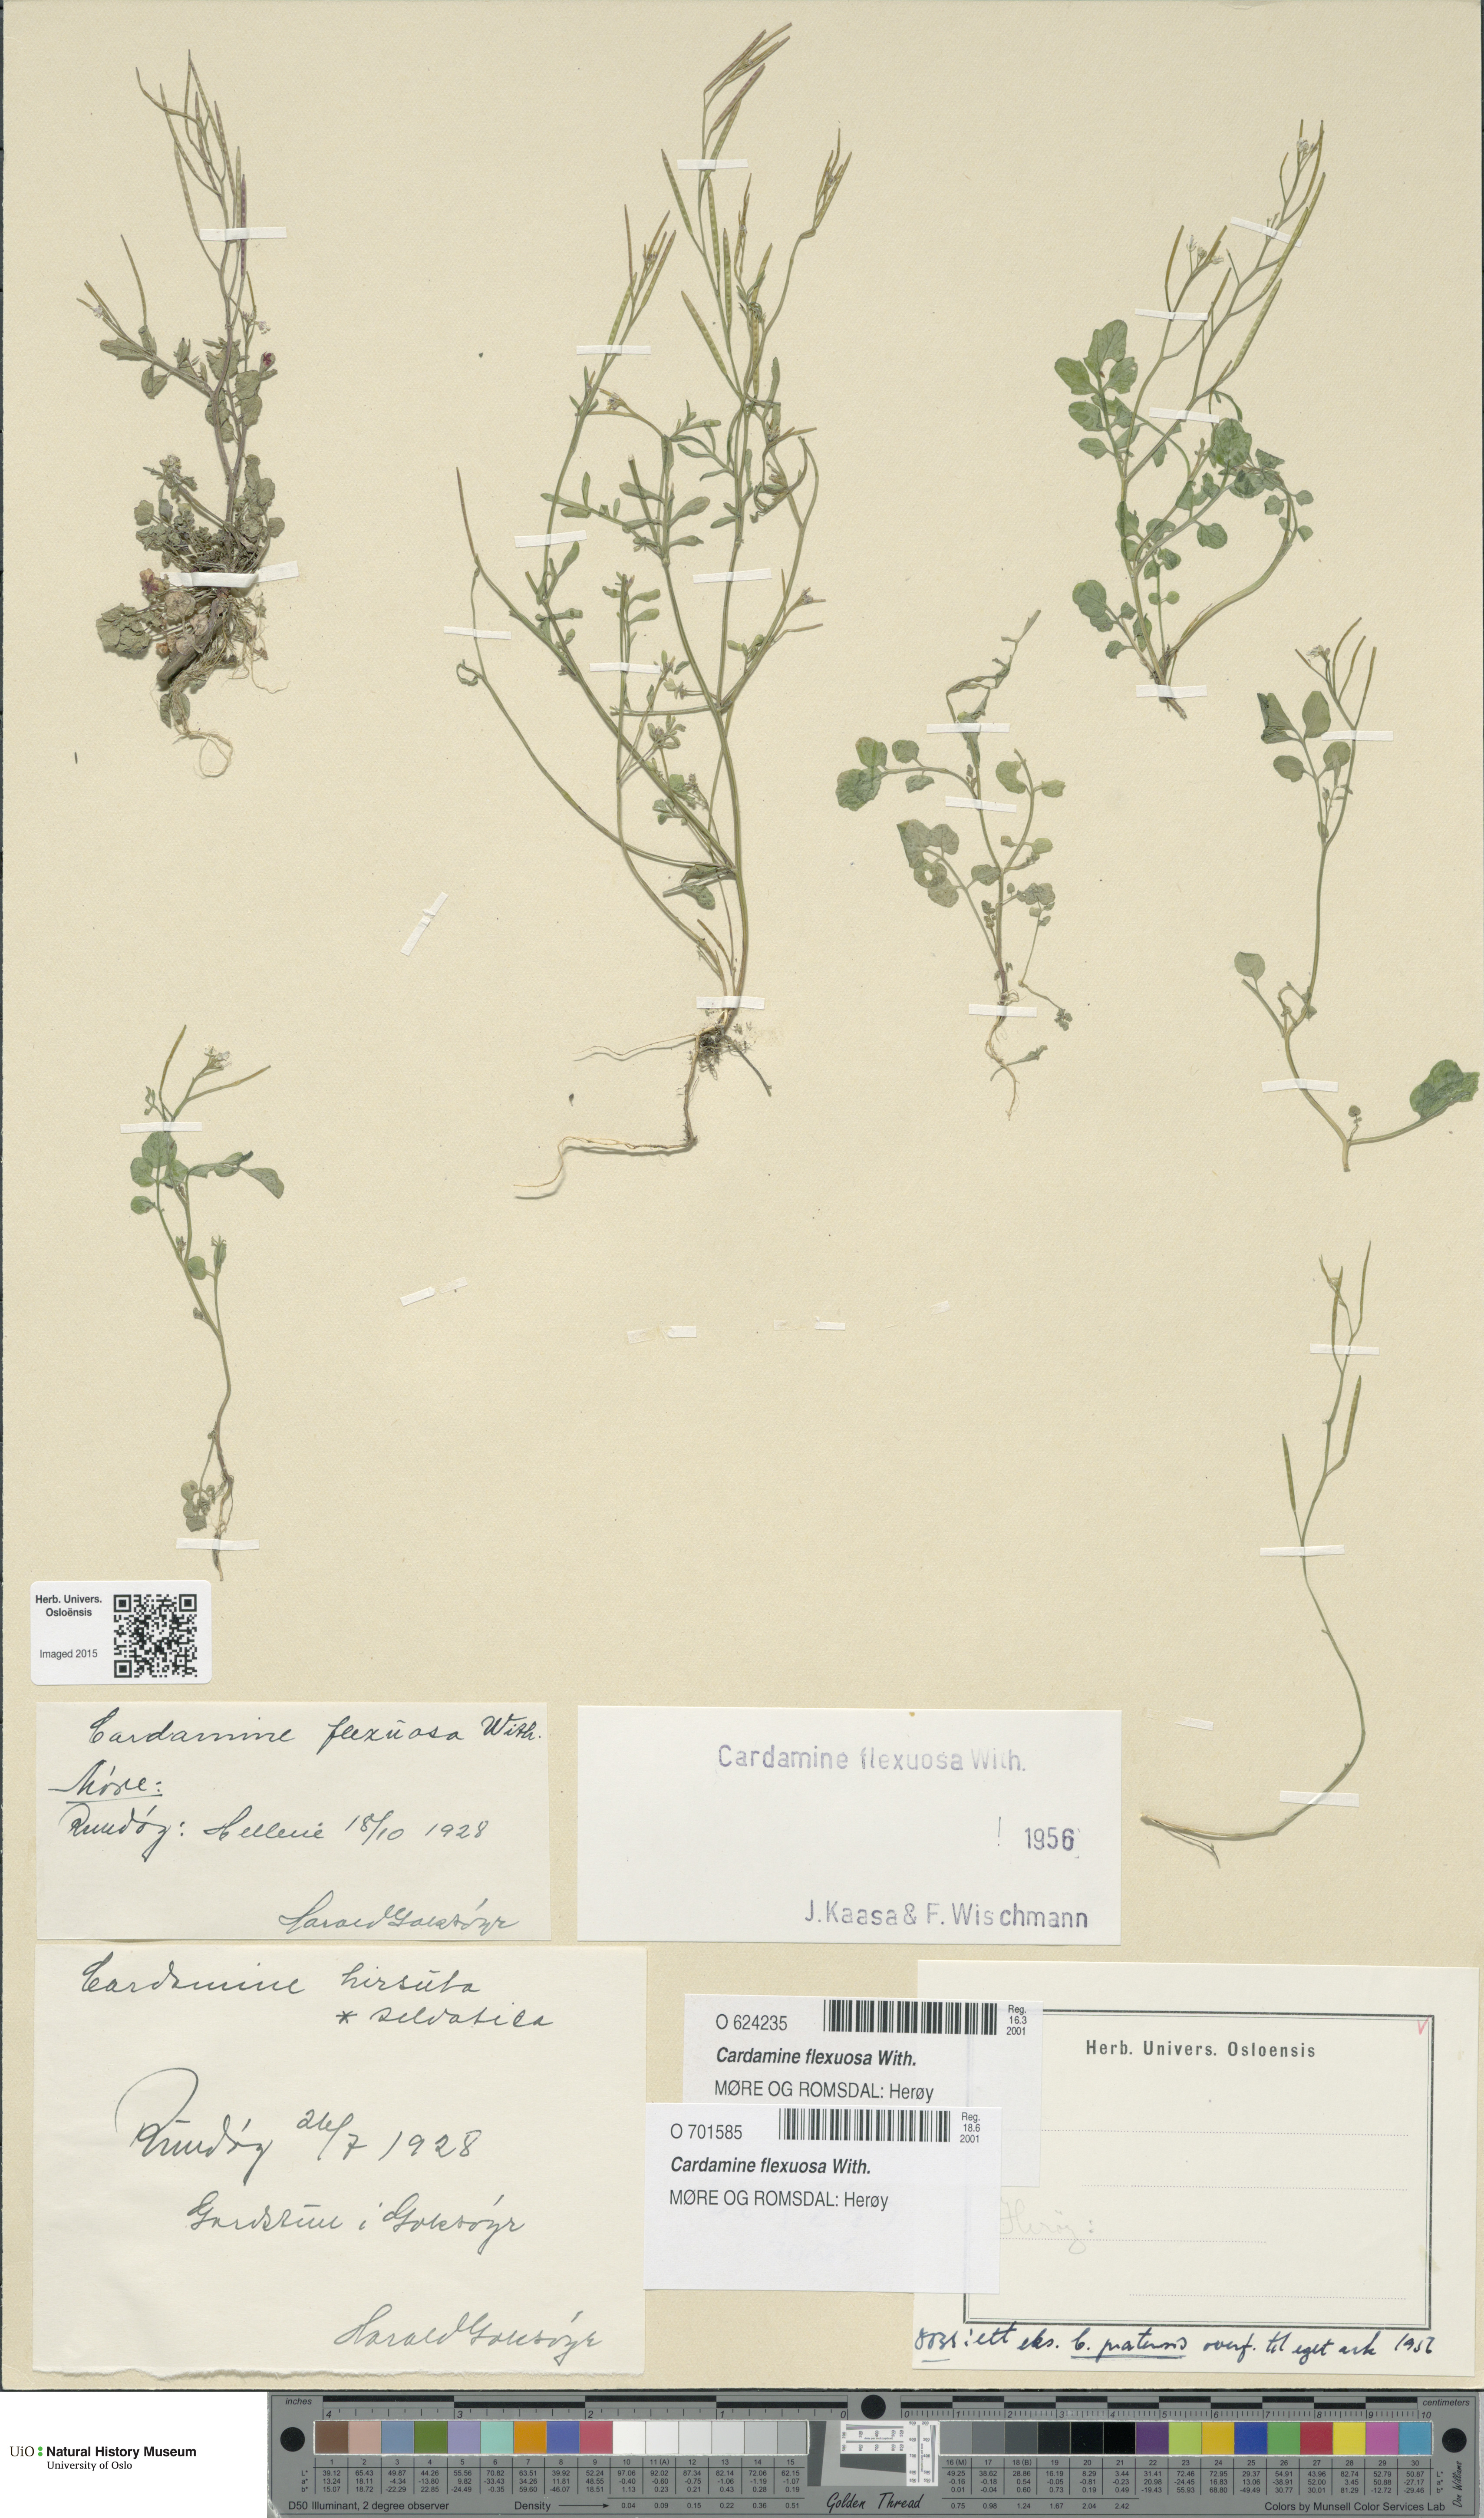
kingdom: Plantae
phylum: Tracheophyta
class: Magnoliopsida
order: Brassicales
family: Brassicaceae
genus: Cardamine
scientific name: Cardamine flexuosa
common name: Woodland bittercress
